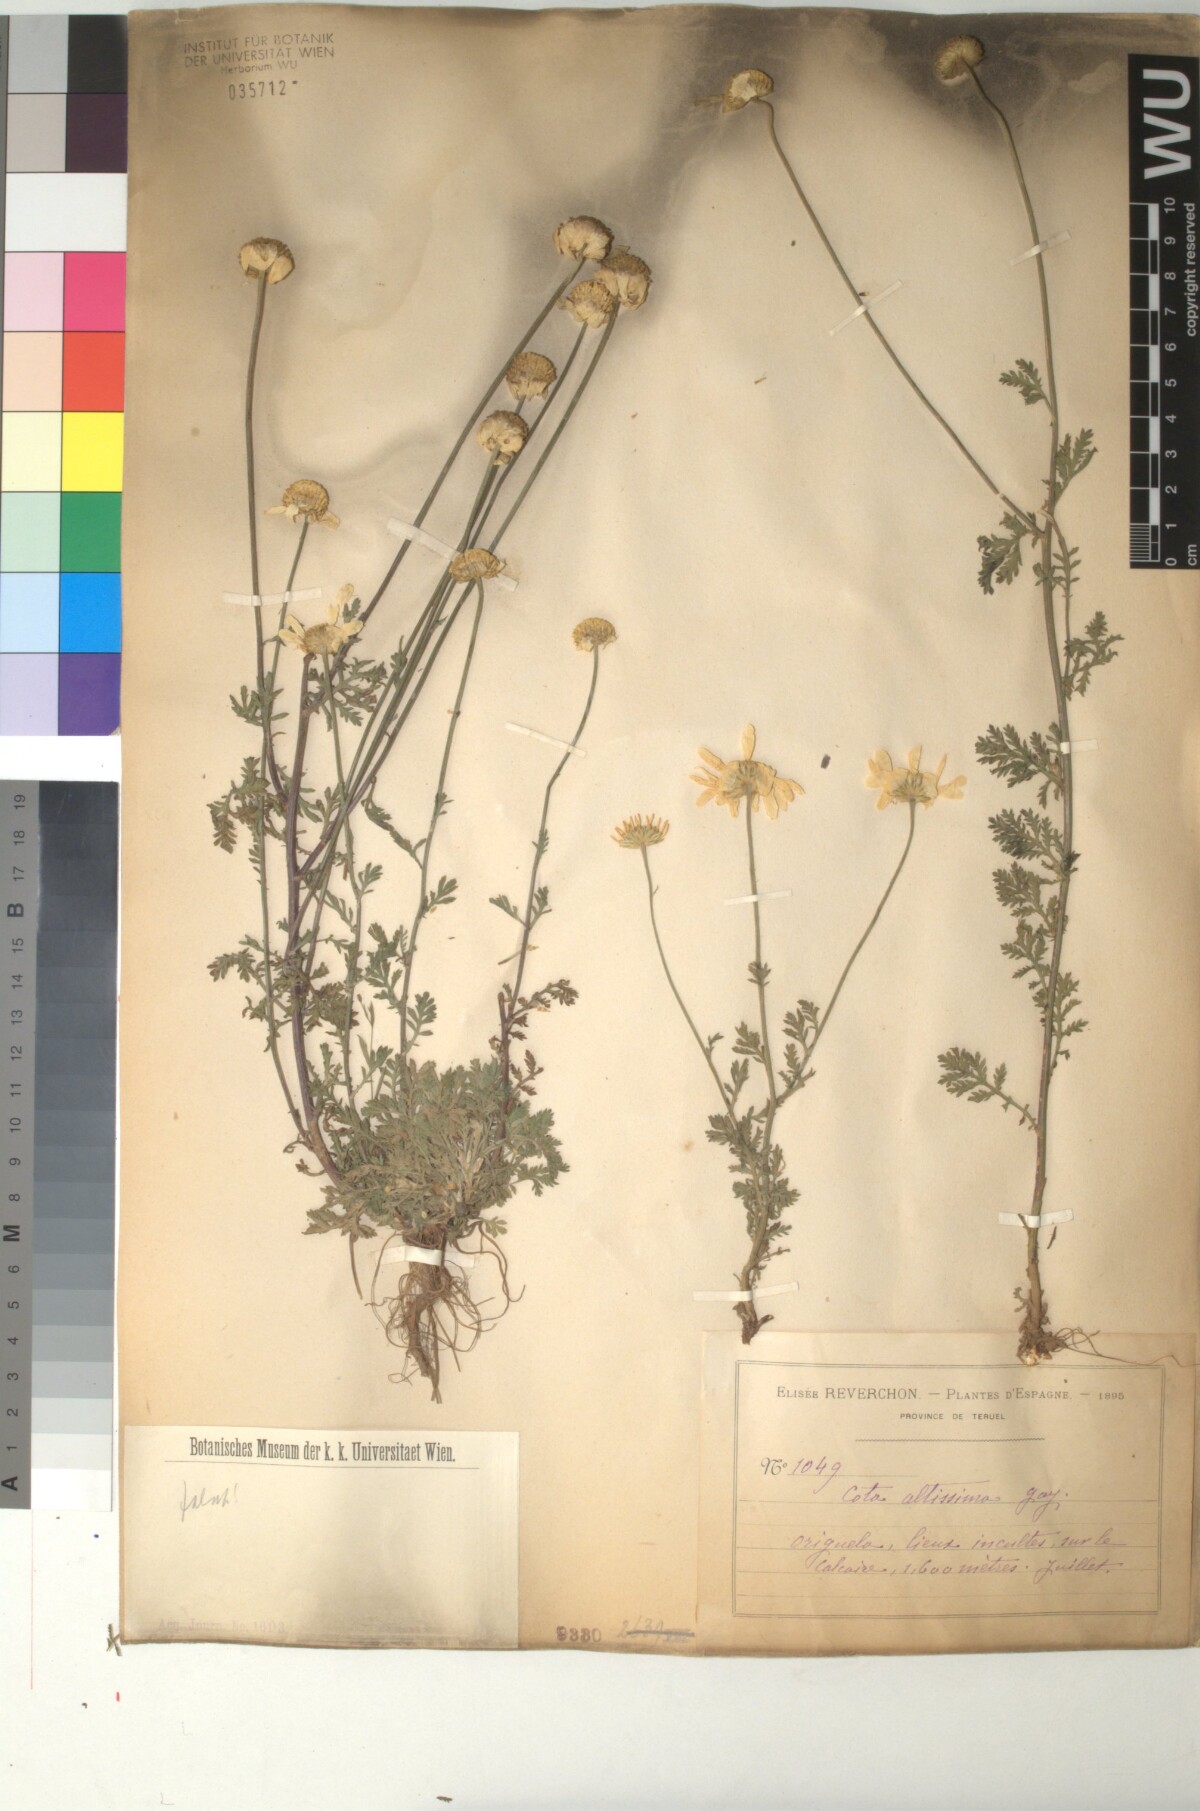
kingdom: Plantae
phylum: Tracheophyta
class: Magnoliopsida
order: Asterales
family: Asteraceae
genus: Cota
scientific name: Cota altissima
